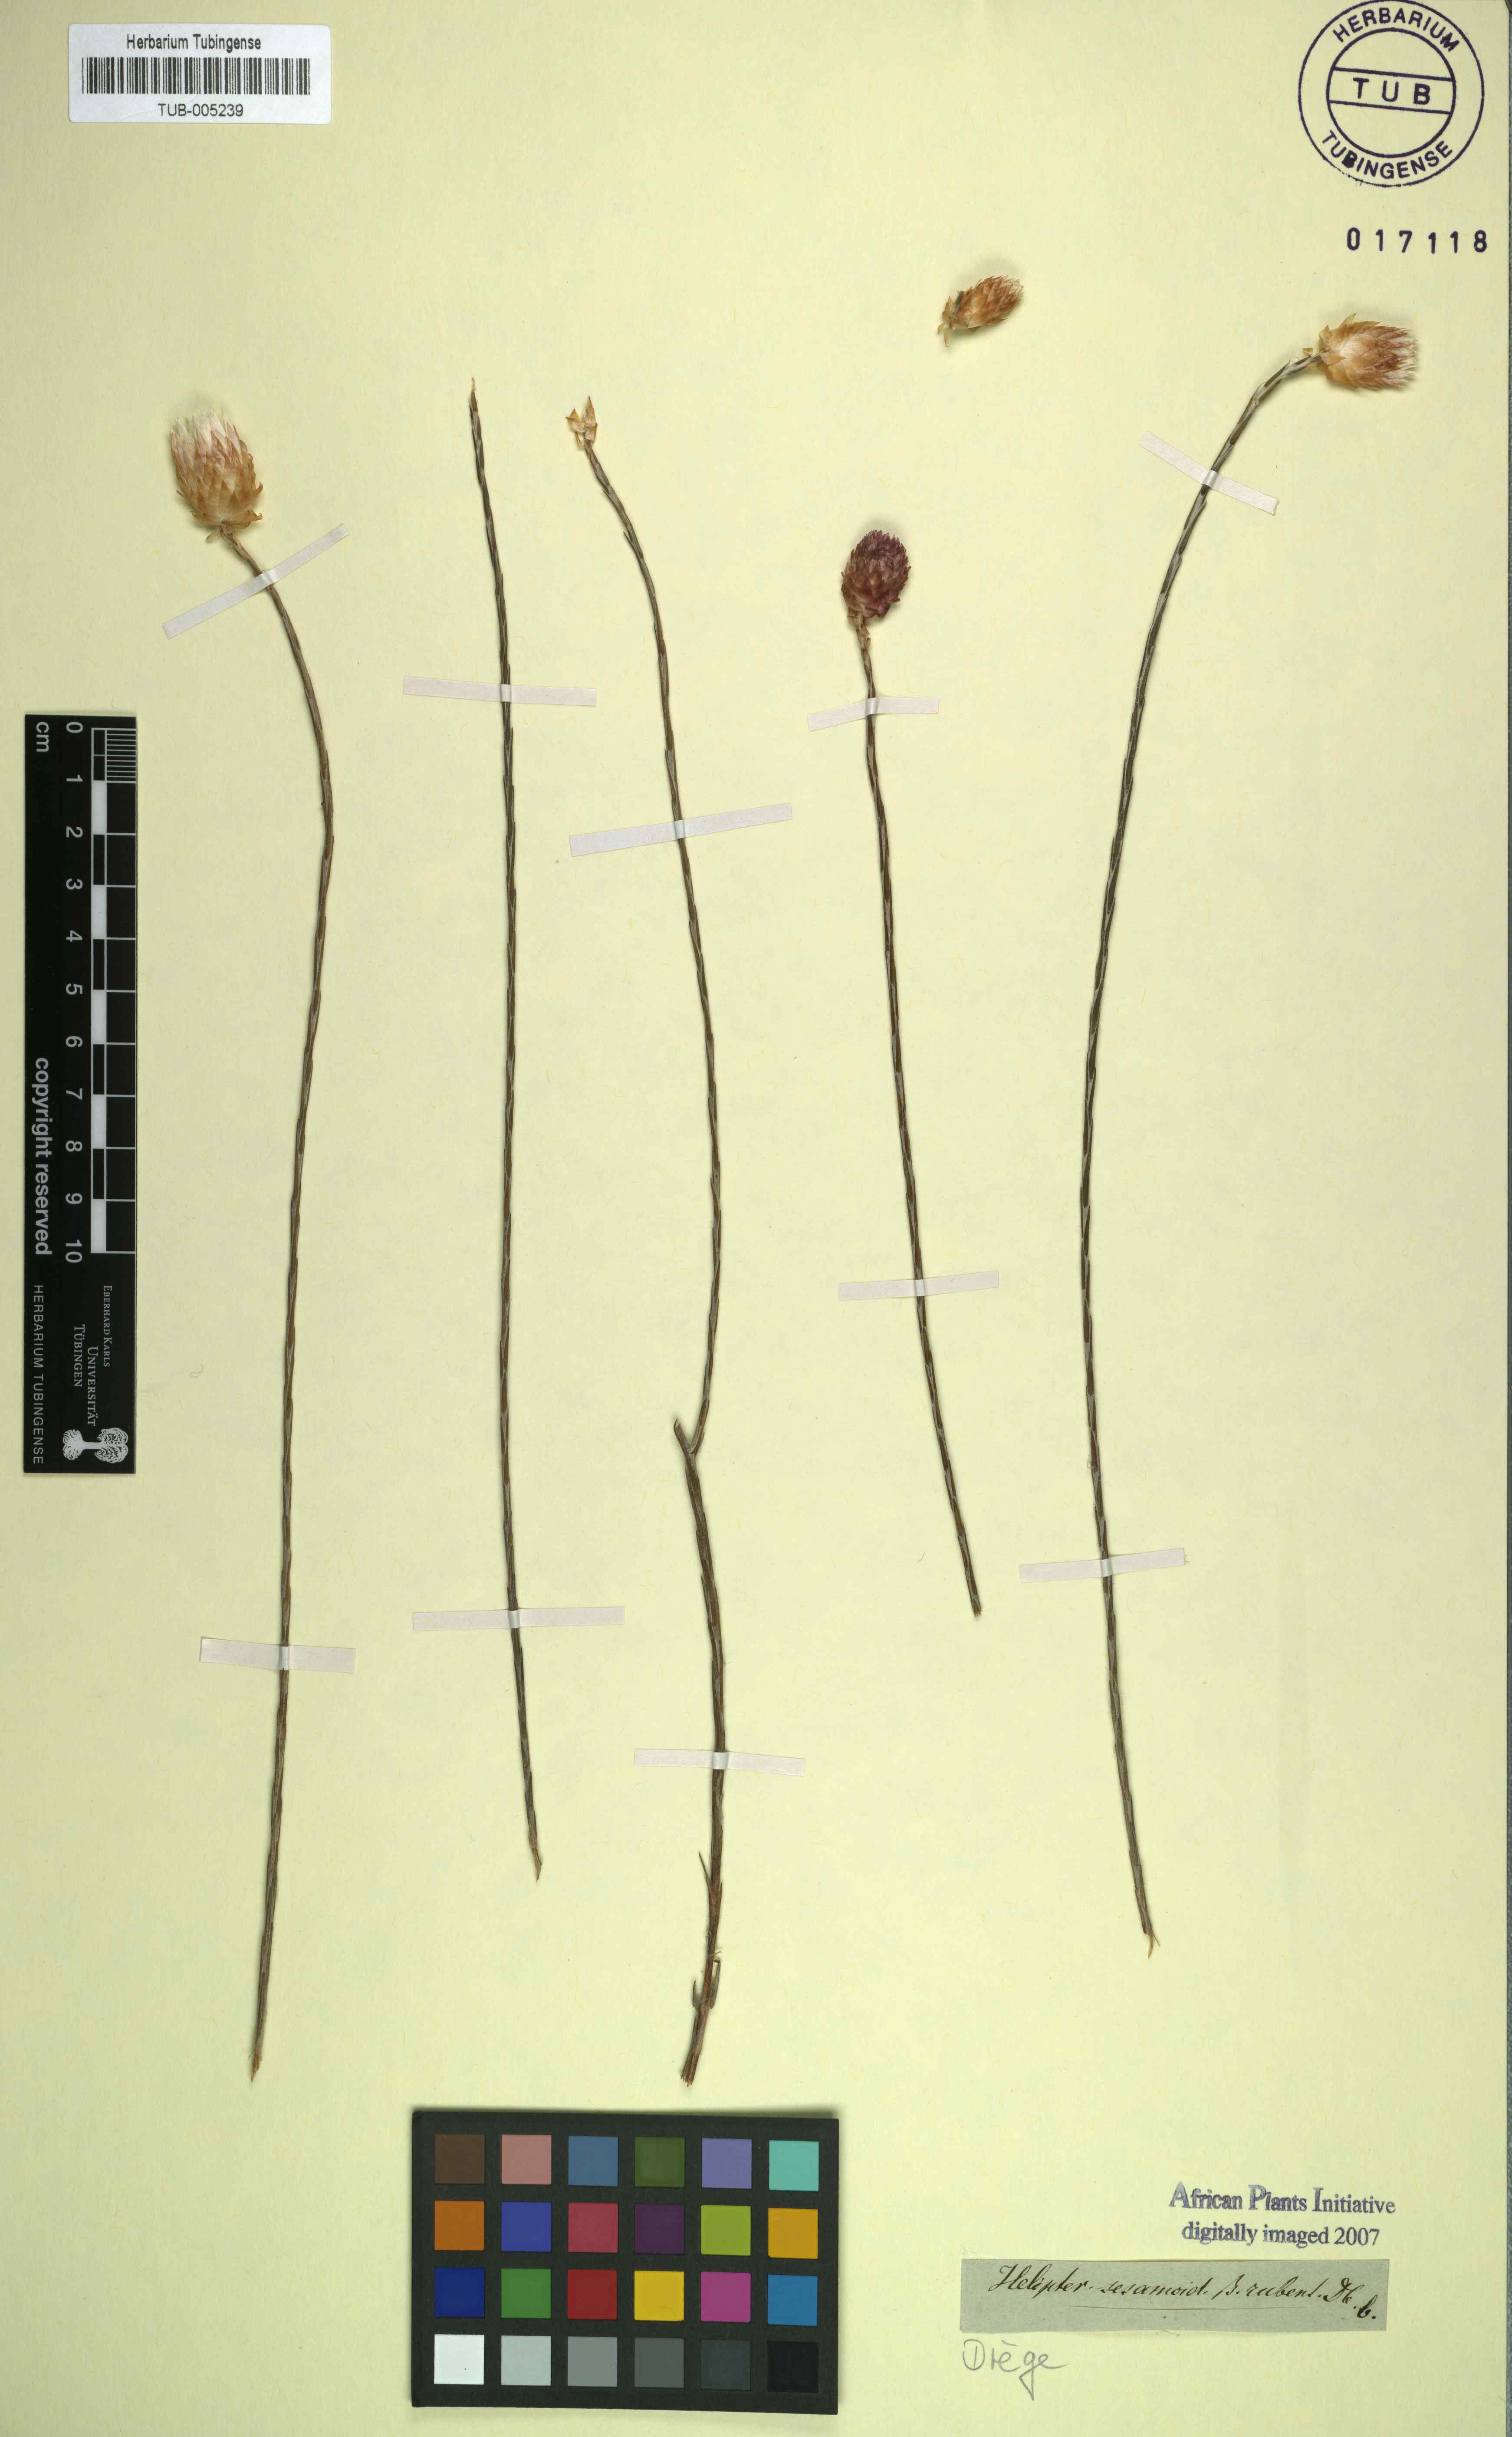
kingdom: Plantae
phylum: Tracheophyta
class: Magnoliopsida
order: Asterales
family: Asteraceae
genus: Edmondia
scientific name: Edmondia sesamoides
